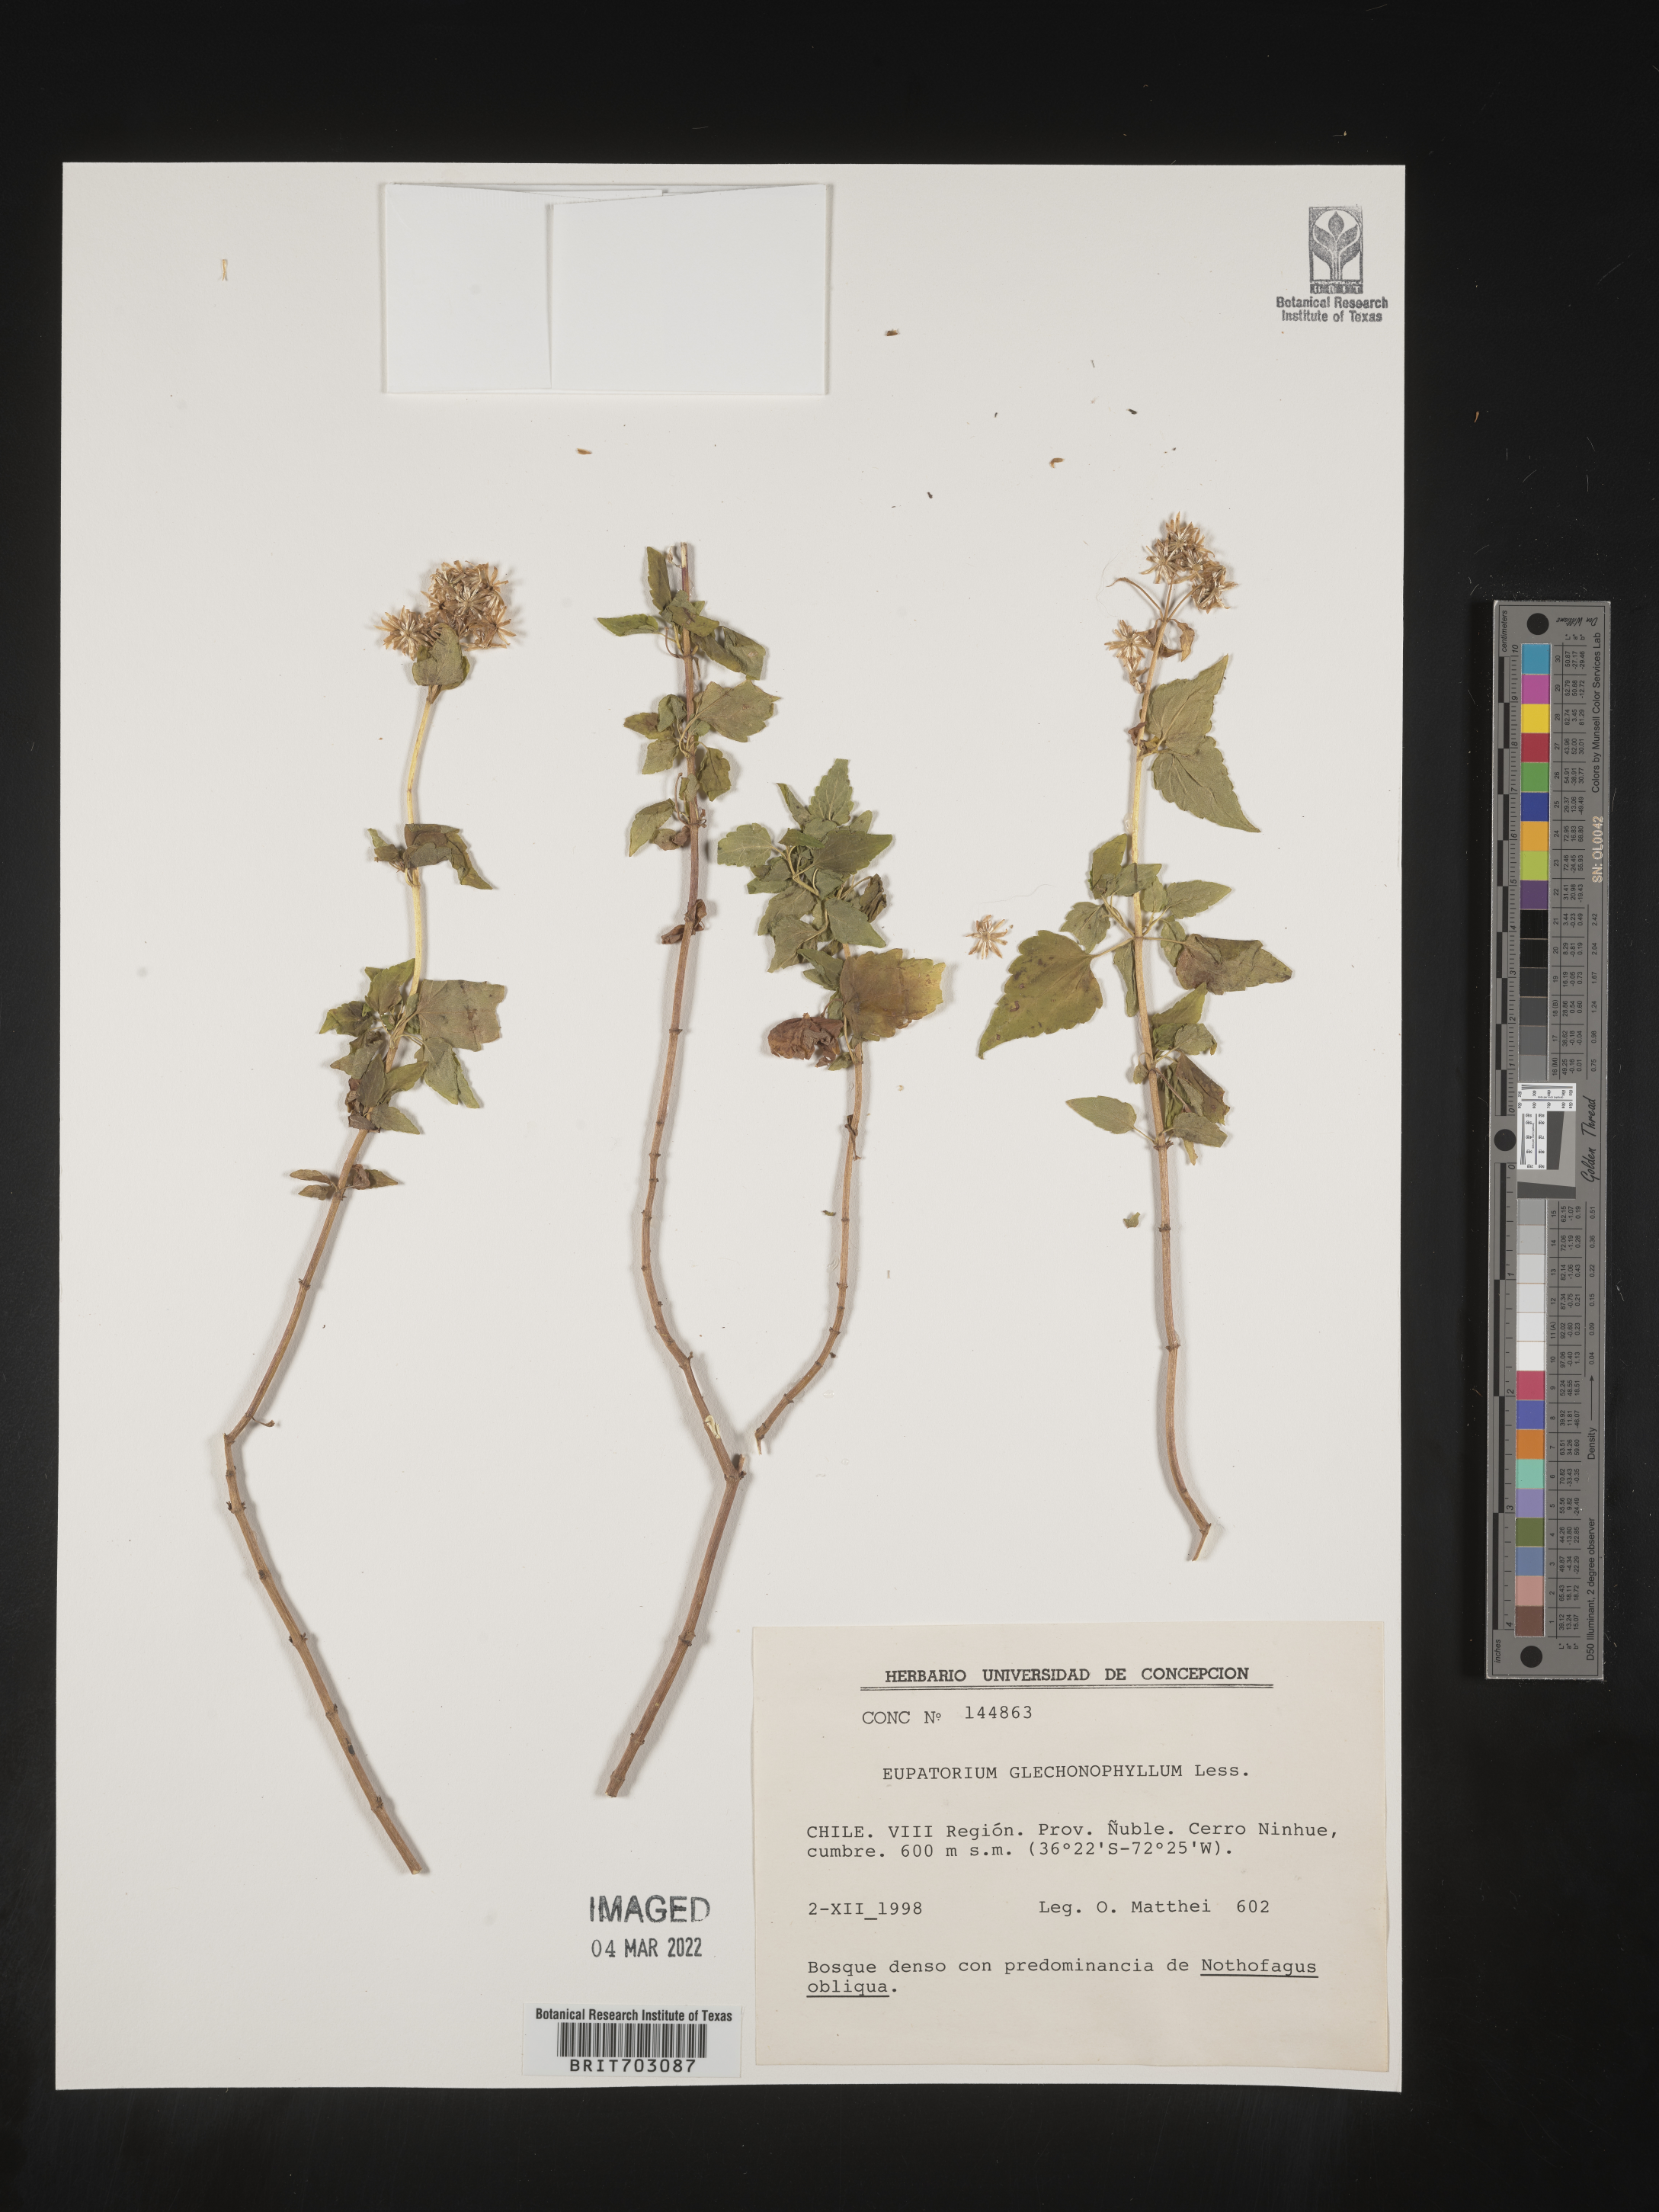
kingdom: Plantae
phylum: Tracheophyta
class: Magnoliopsida
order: Asterales
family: Asteraceae
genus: Eupatorium
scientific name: Eupatorium
